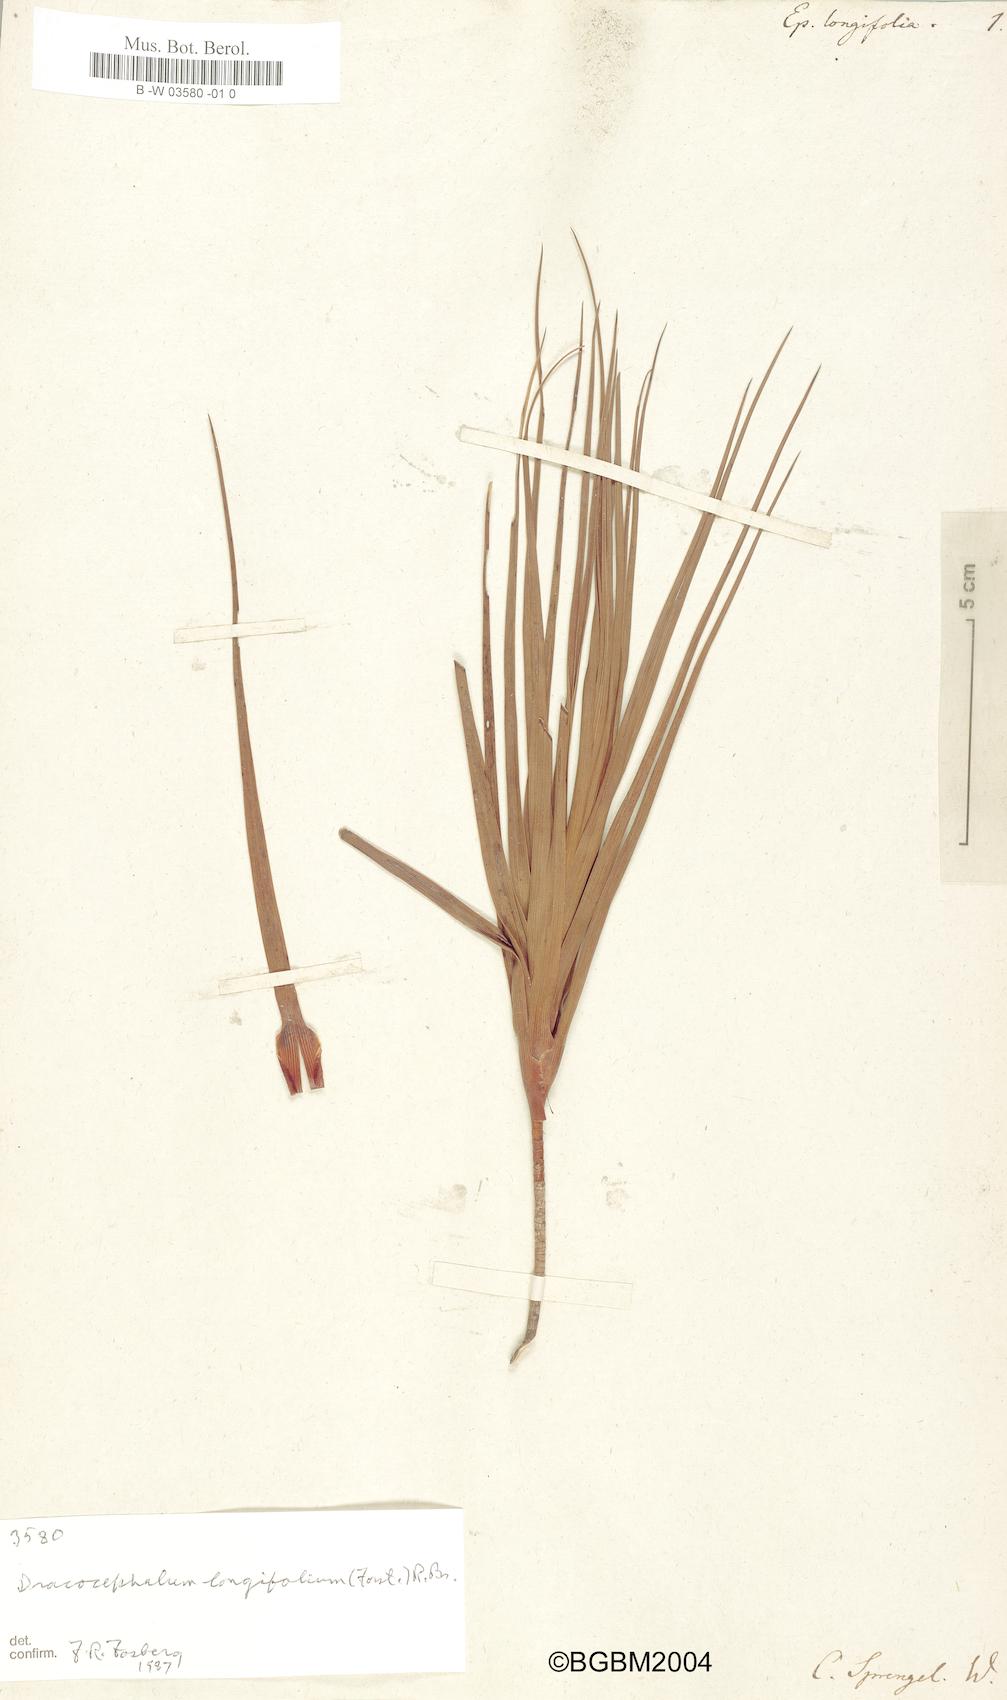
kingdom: Plantae
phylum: Tracheophyta
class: Magnoliopsida
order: Ericales
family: Ericaceae
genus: Dracophyllum
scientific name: Dracophyllum longifolium
